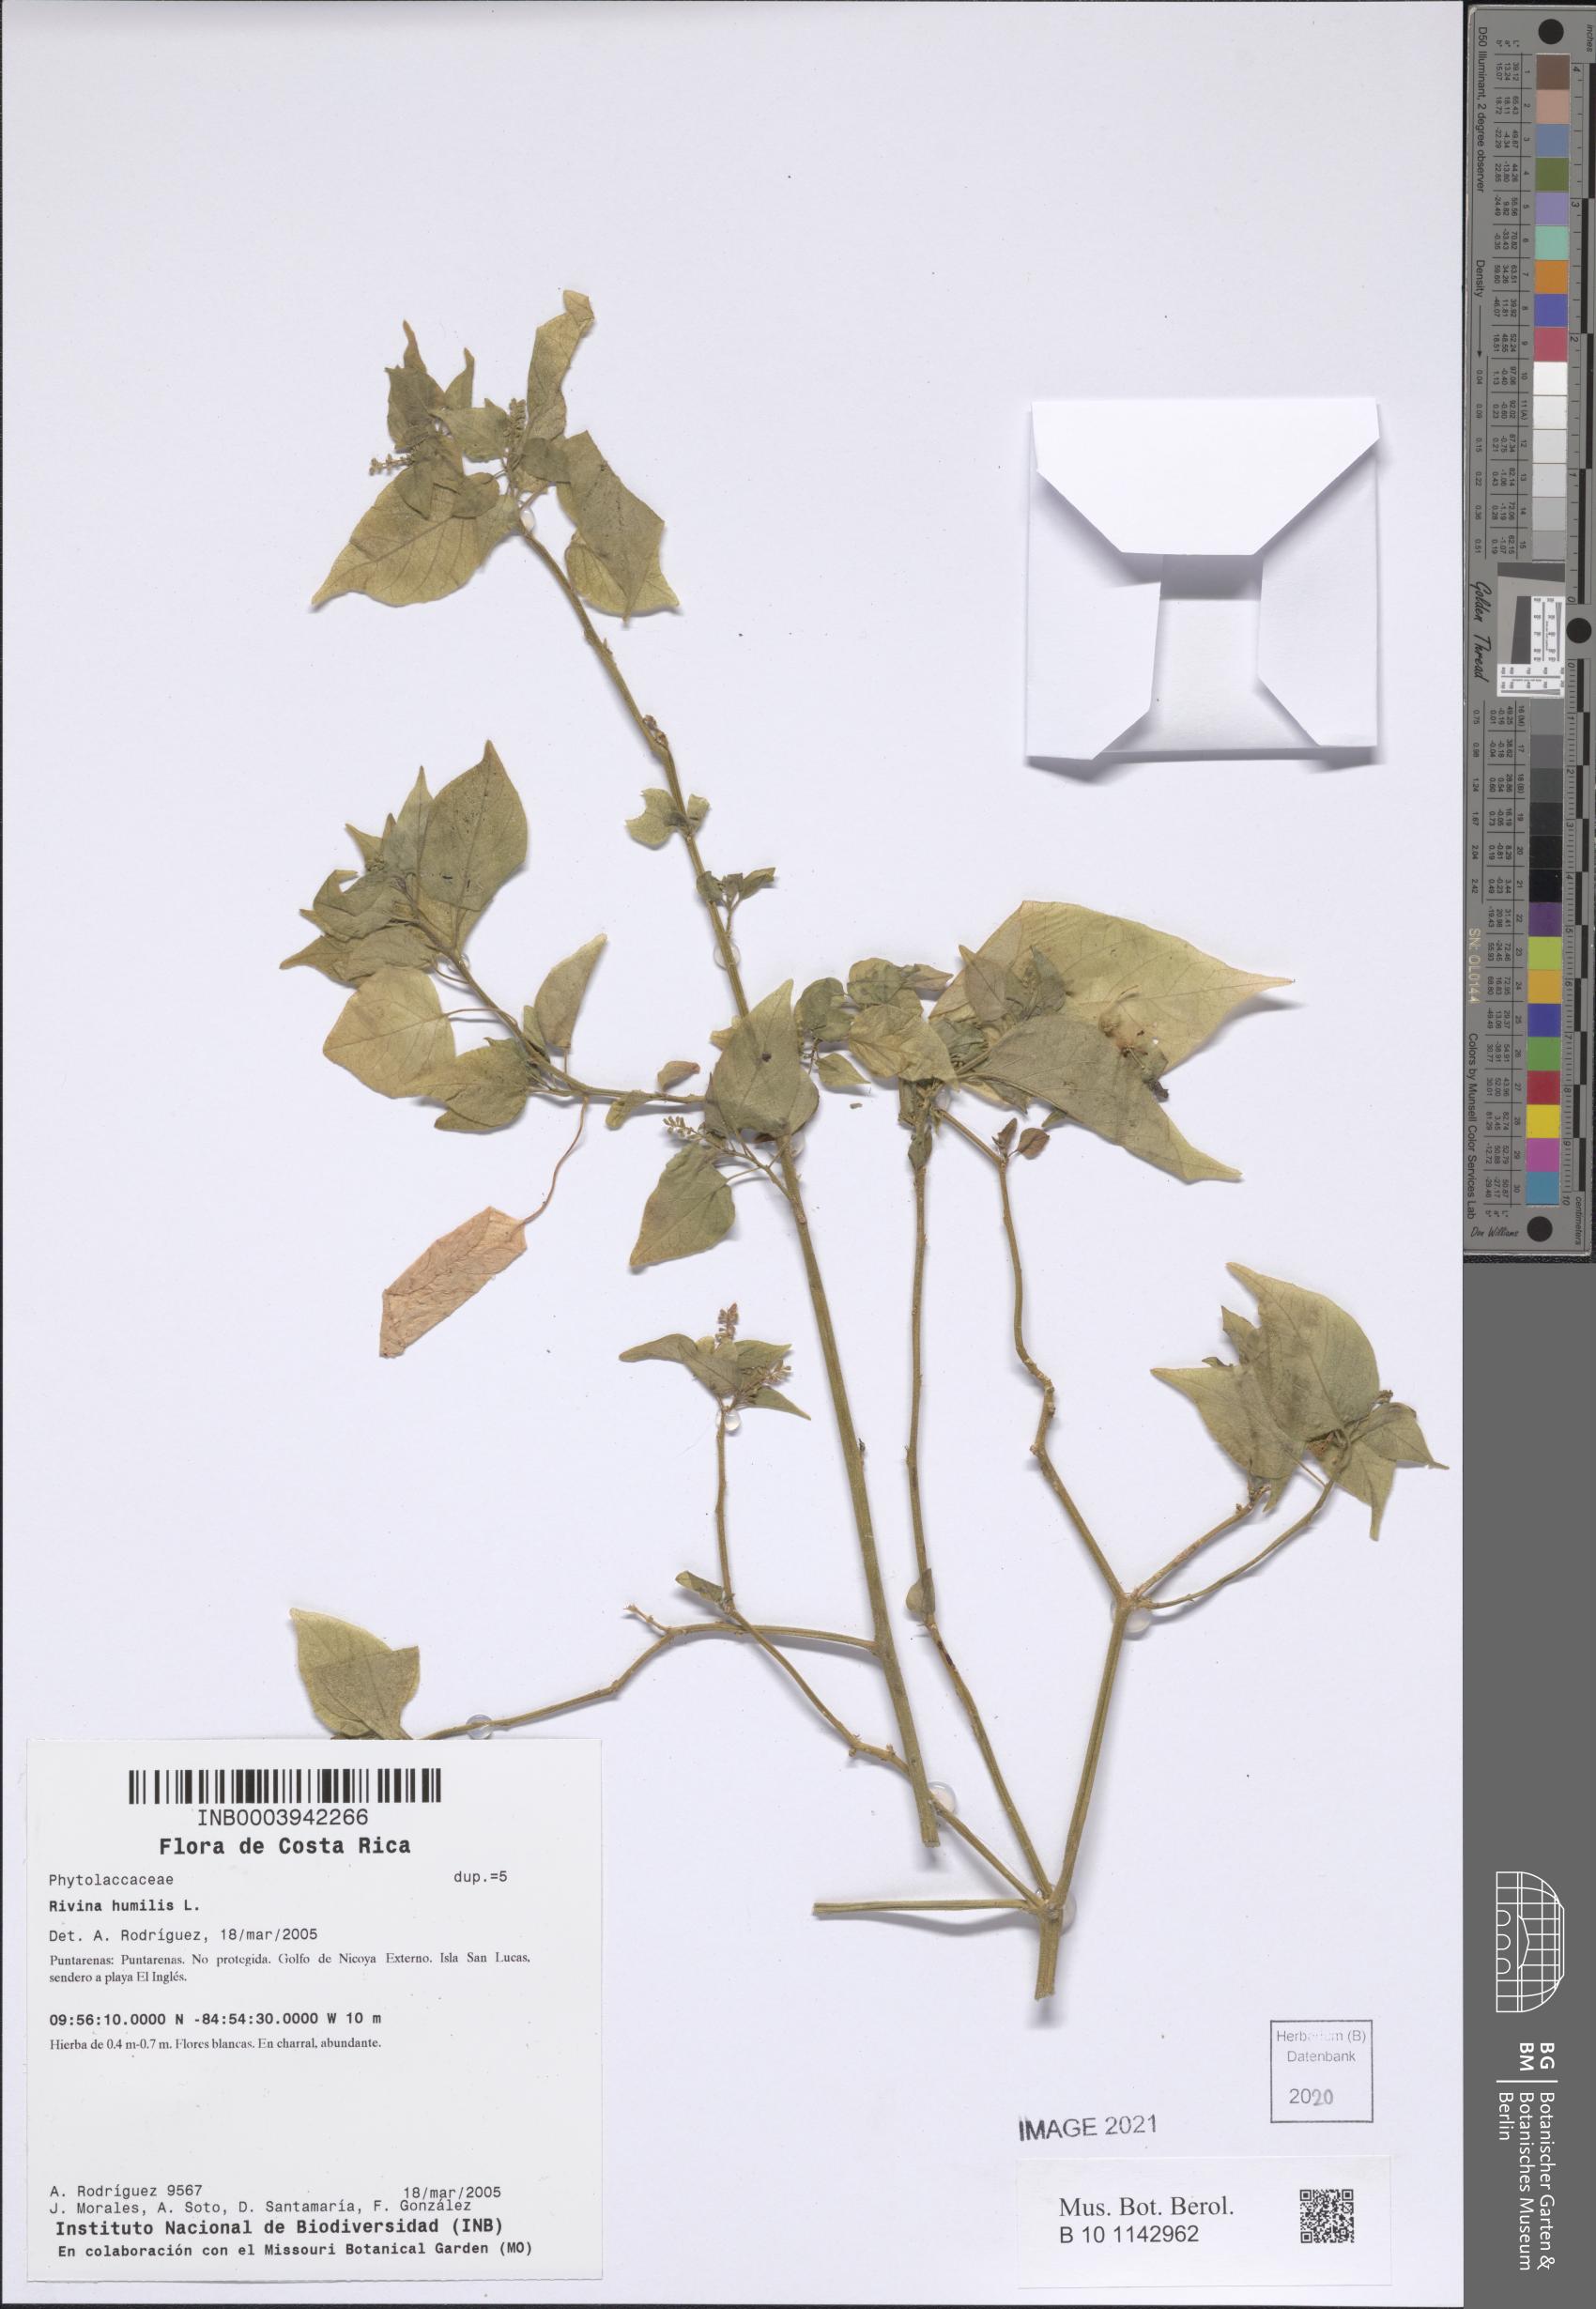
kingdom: Plantae
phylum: Tracheophyta
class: Magnoliopsida
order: Caryophyllales
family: Phytolaccaceae
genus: Rivina
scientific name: Rivina humilis
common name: Rougeplant
